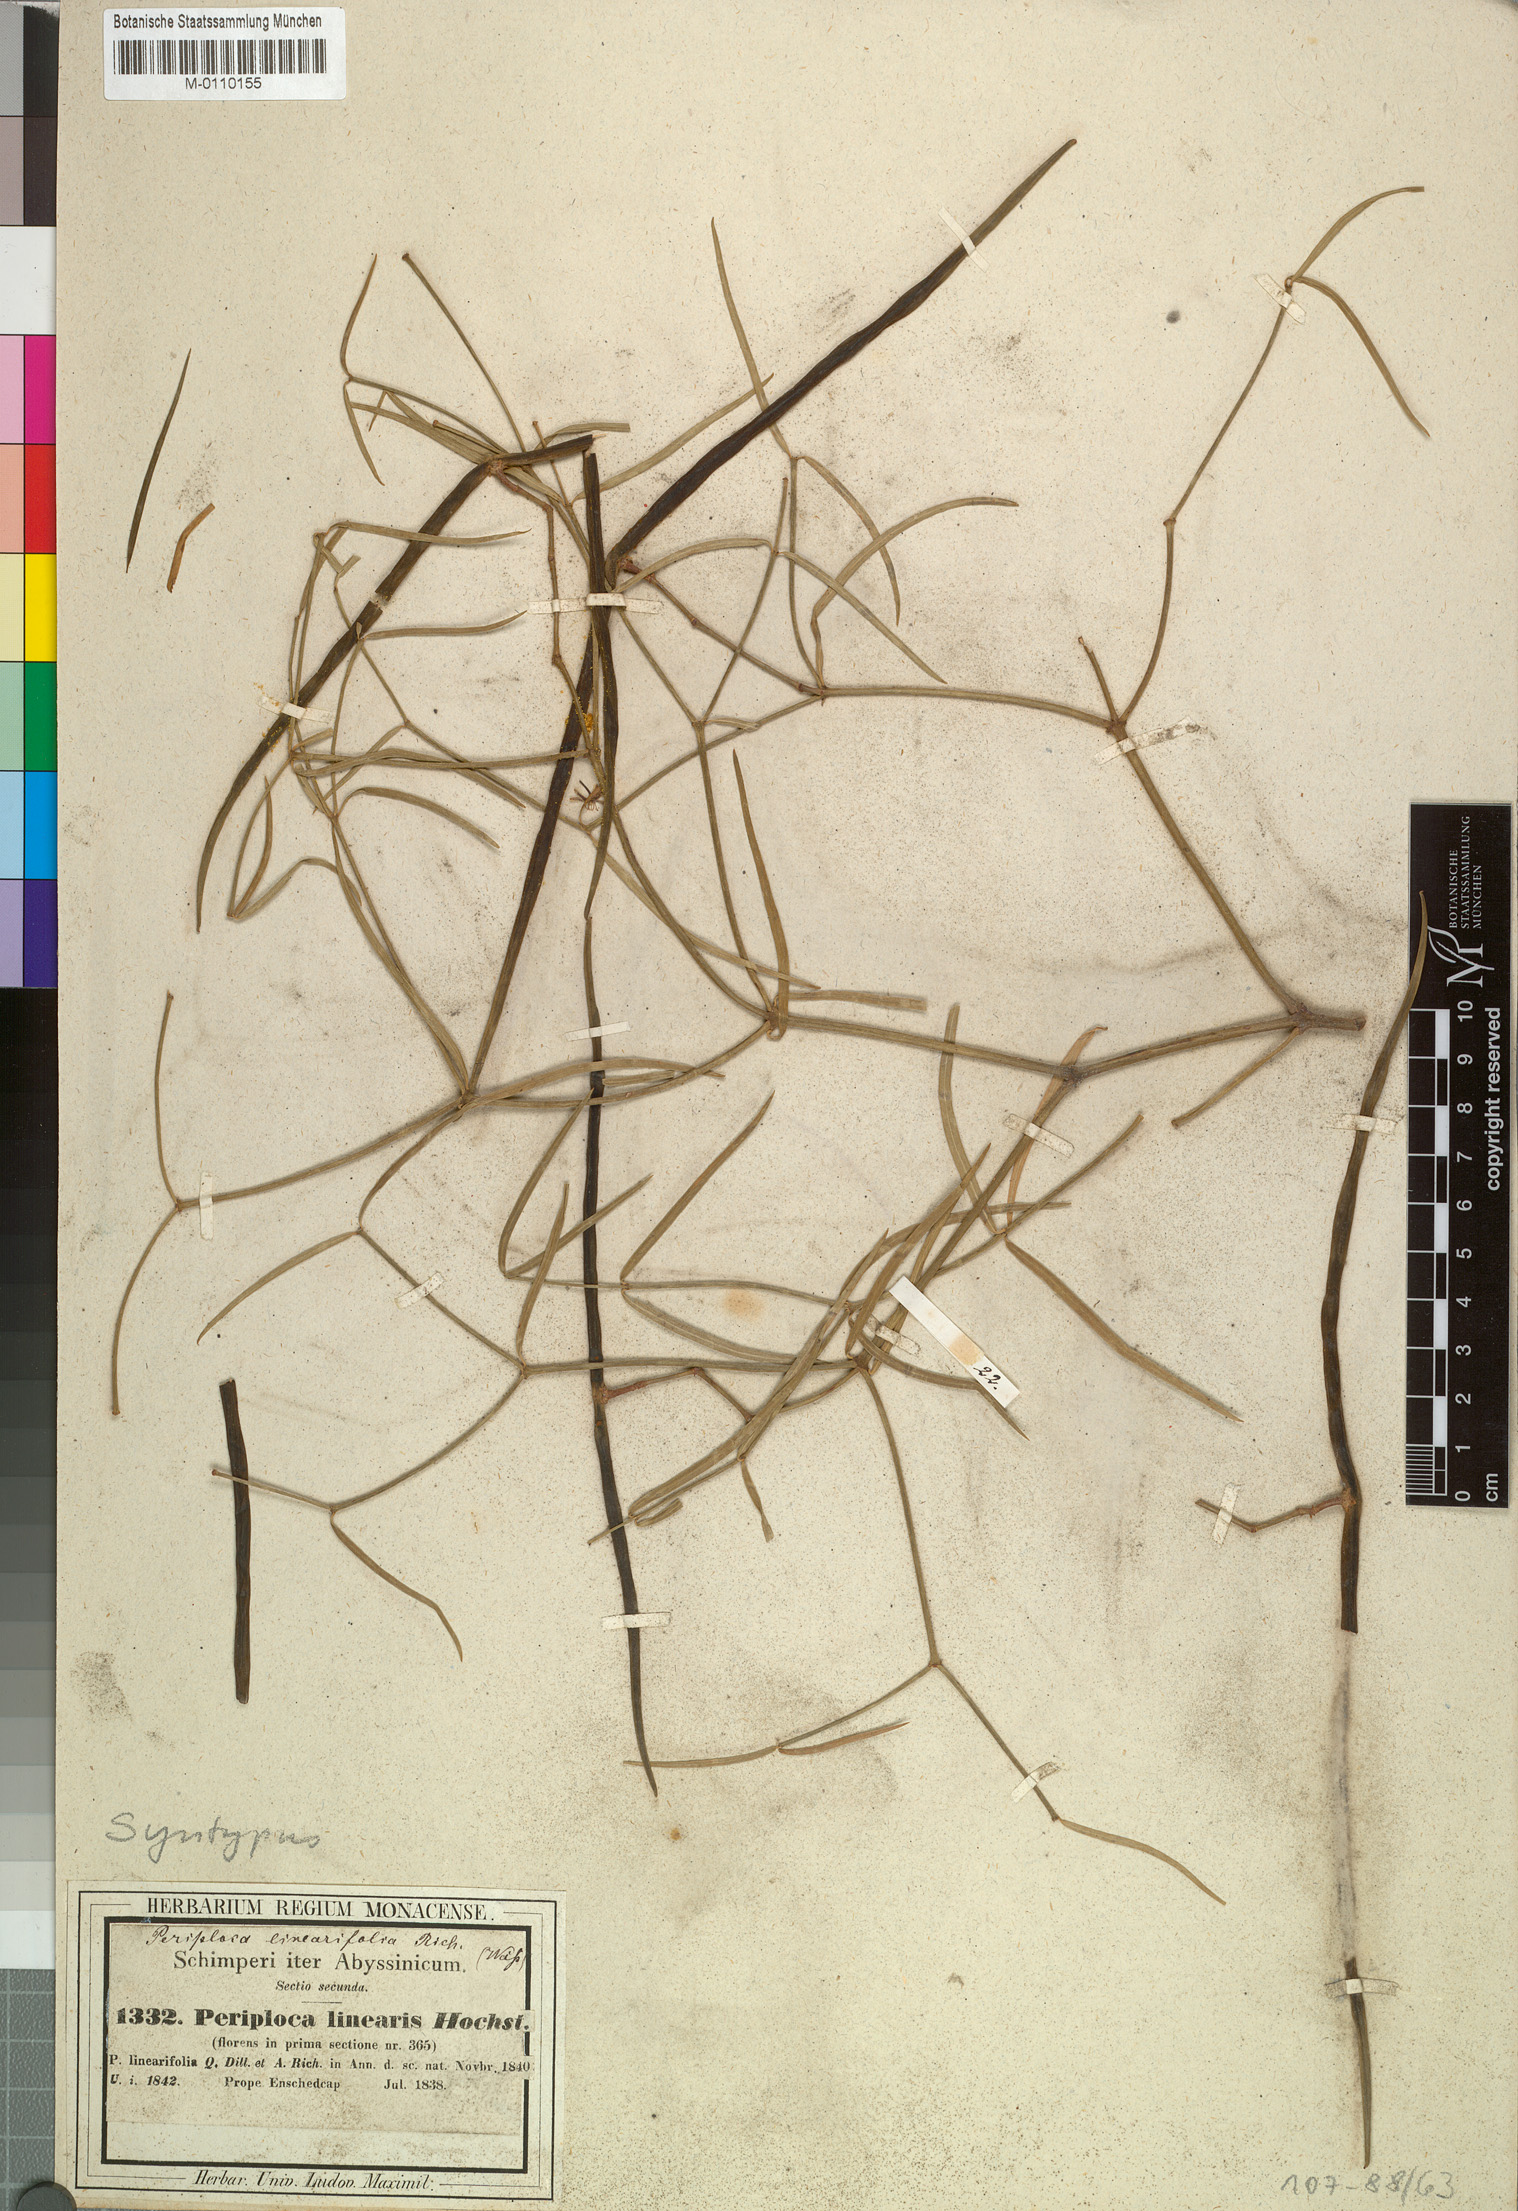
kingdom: Plantae
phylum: Tracheophyta
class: Magnoliopsida
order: Gentianales
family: Apocynaceae
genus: Periploca
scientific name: Periploca linearifolia
